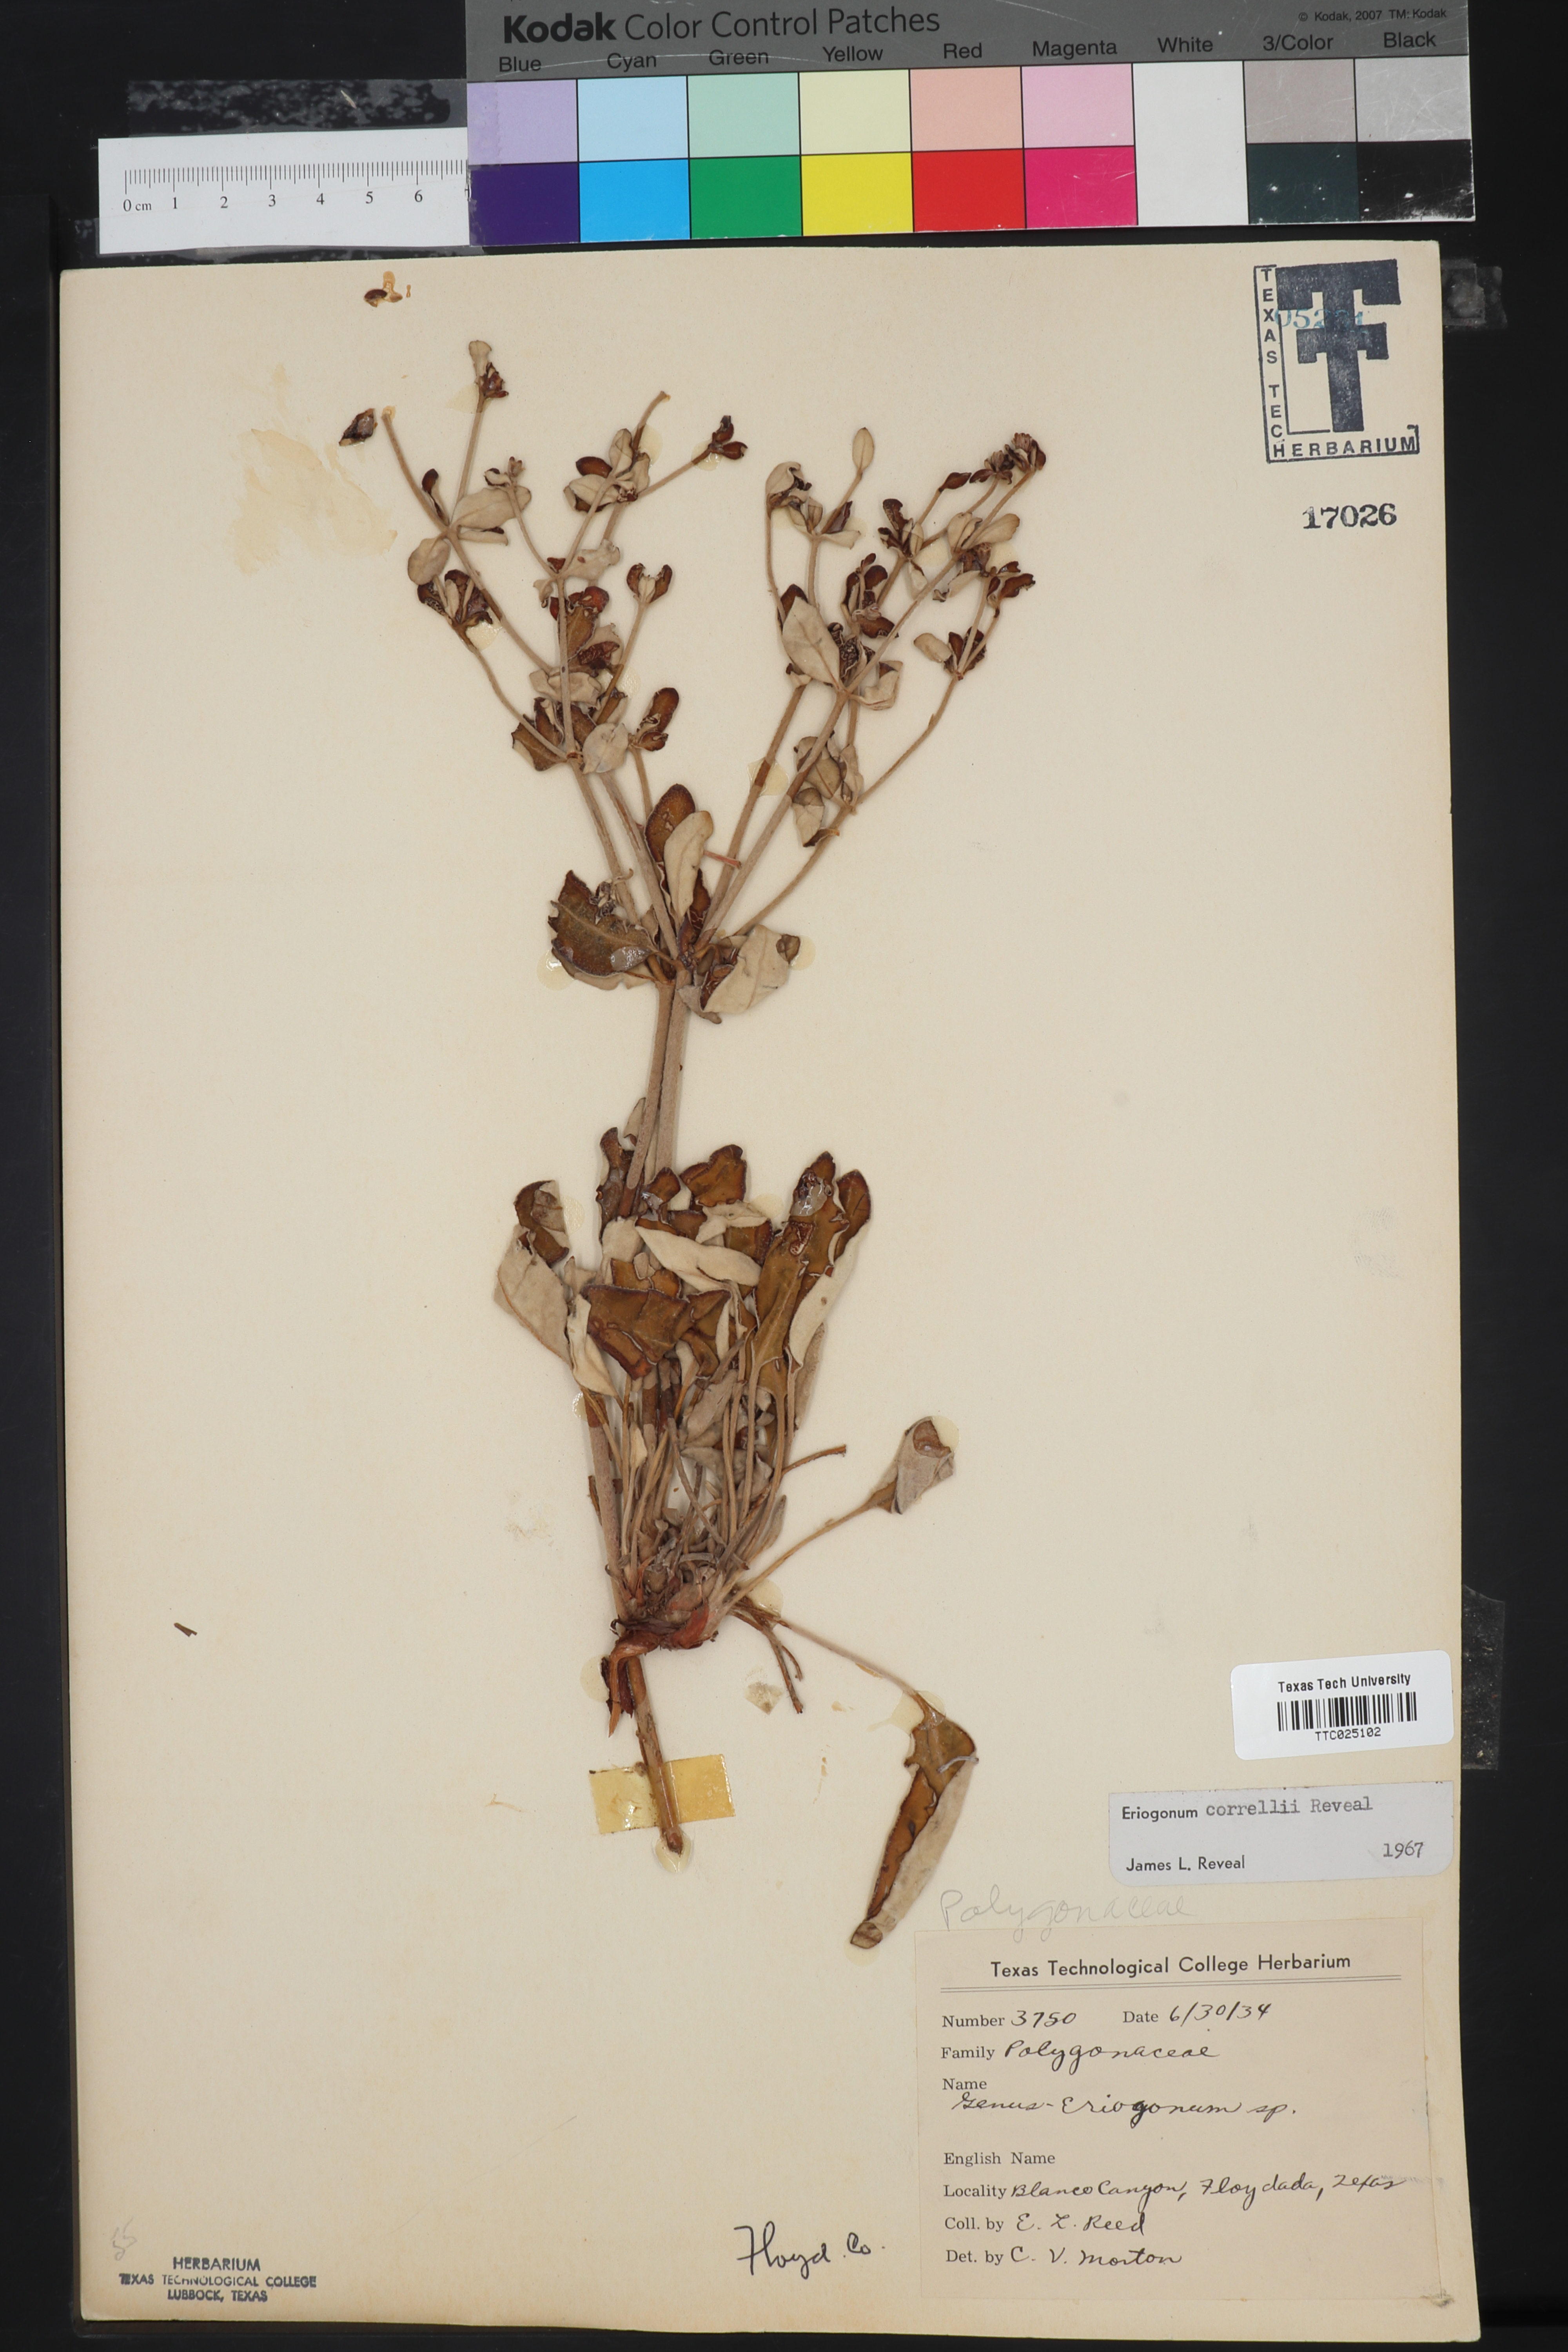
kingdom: Plantae
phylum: Tracheophyta
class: Magnoliopsida
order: Caryophyllales
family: Polygonaceae
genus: Eriogonum
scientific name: Eriogonum correllii
